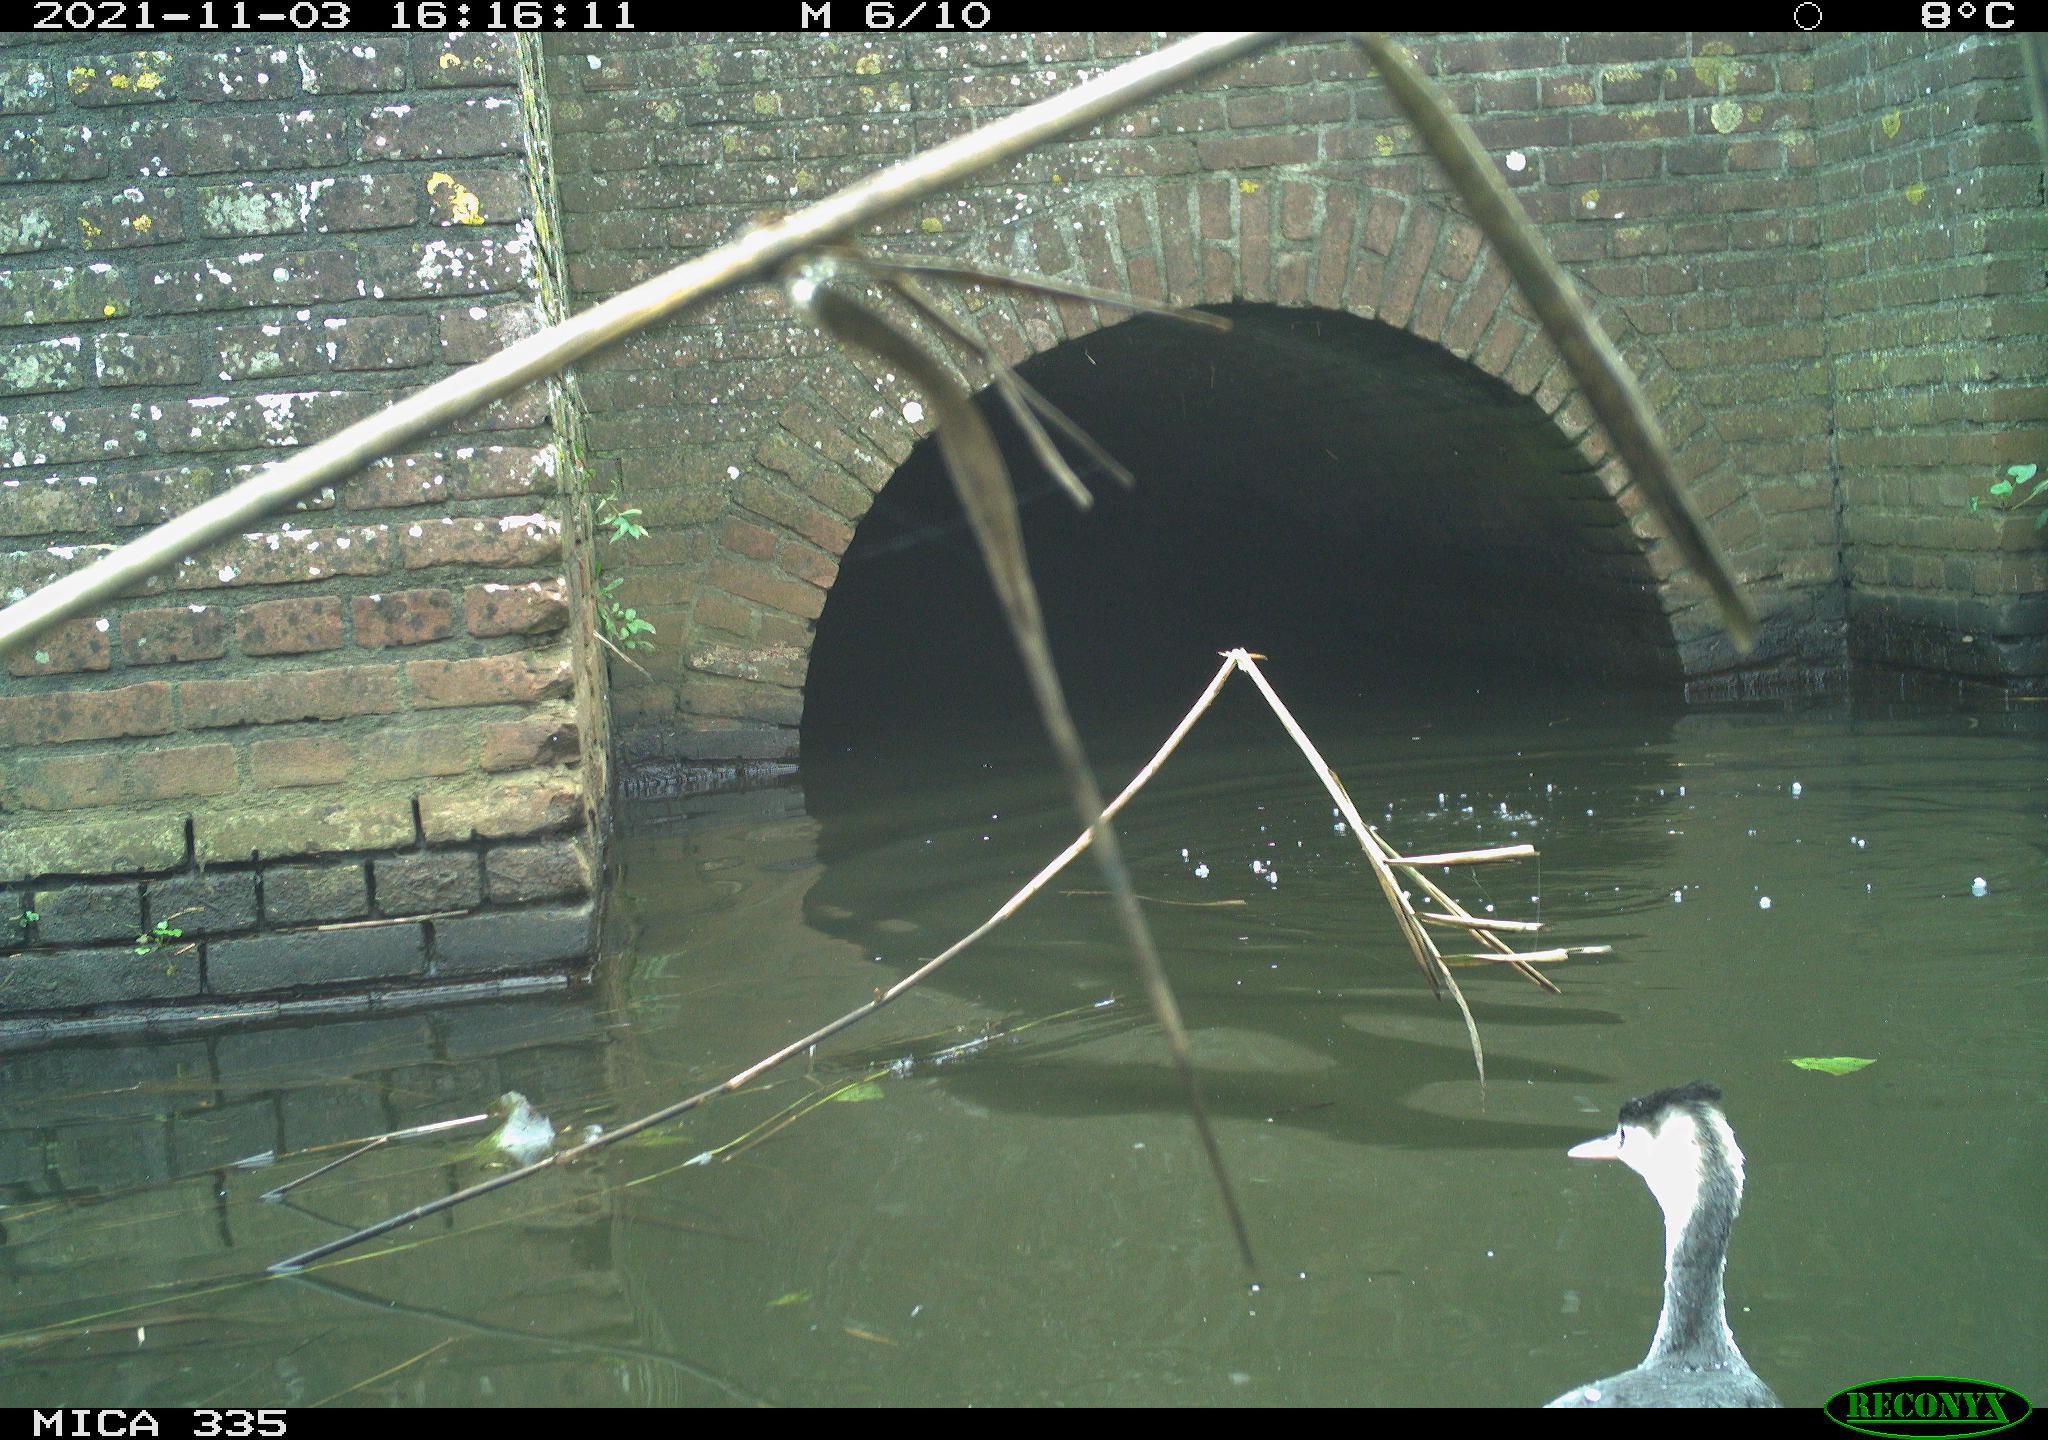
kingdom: Animalia
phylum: Chordata
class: Aves
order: Podicipediformes
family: Podicipedidae
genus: Podiceps
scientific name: Podiceps cristatus
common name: Great crested grebe
